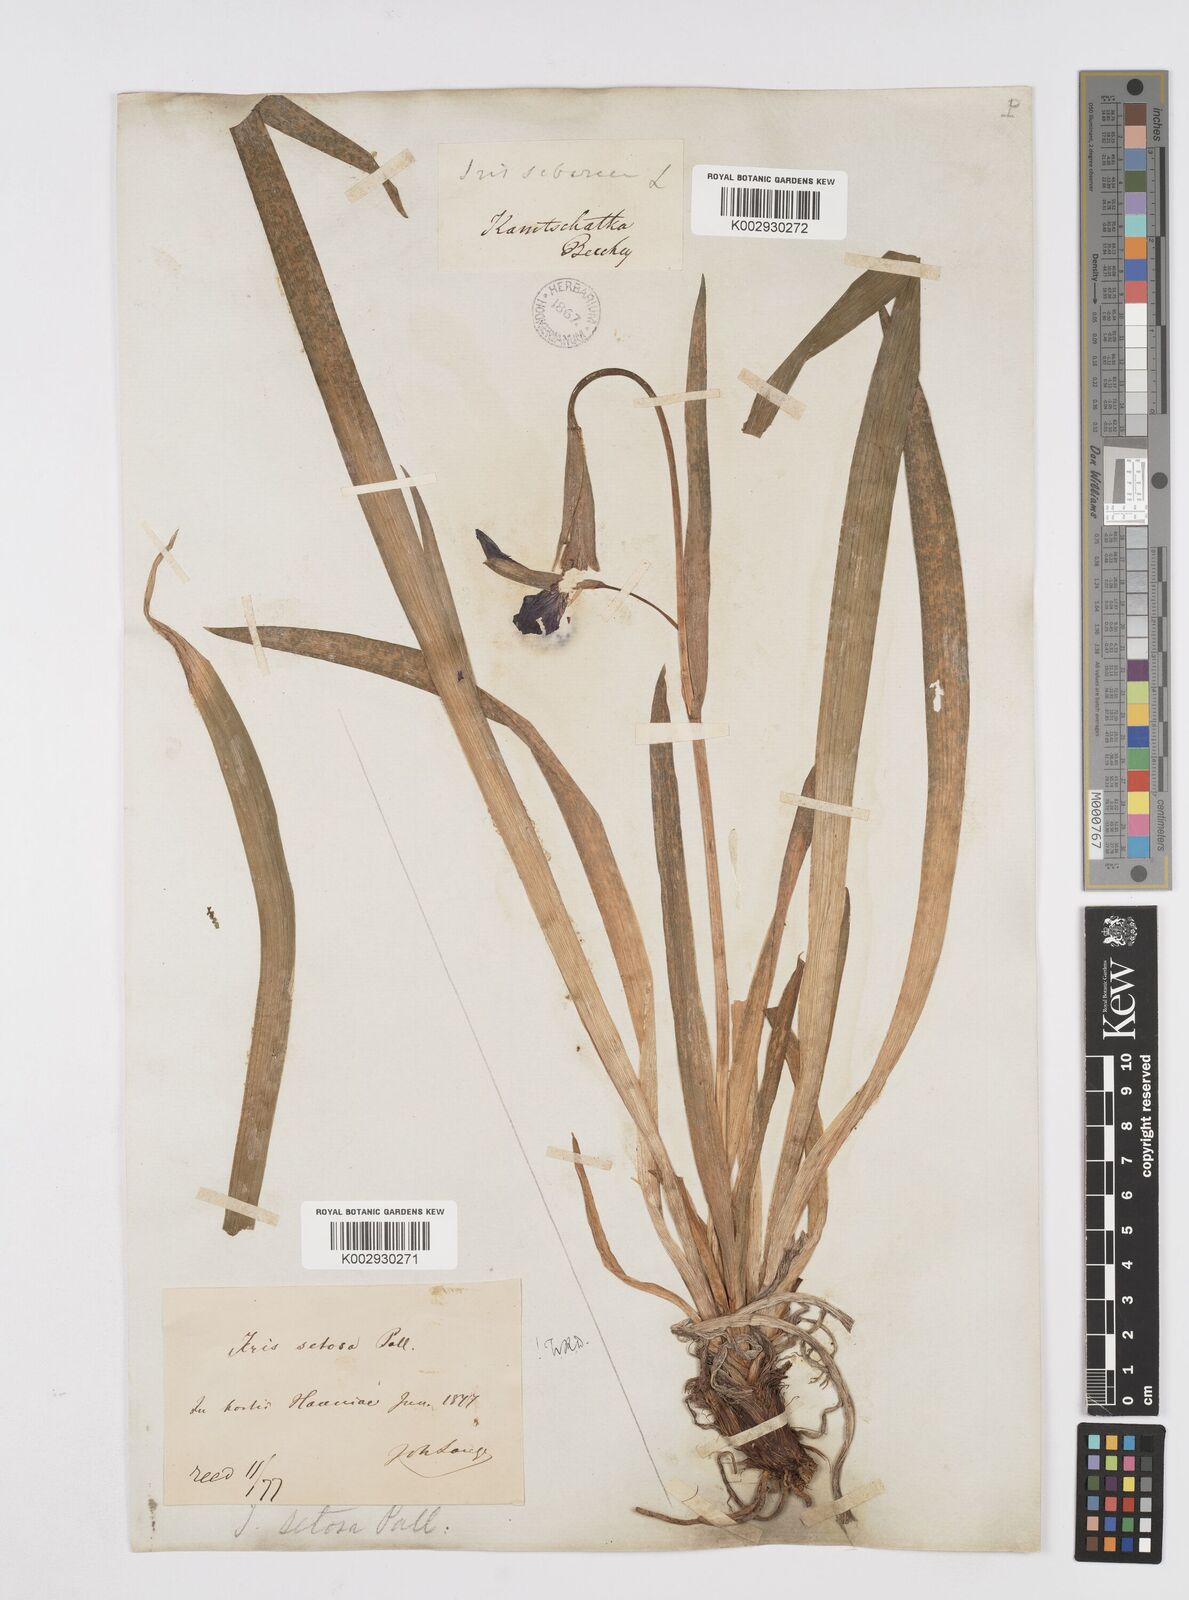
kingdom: Plantae
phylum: Tracheophyta
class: Liliopsida
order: Asparagales
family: Iridaceae
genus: Iris
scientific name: Iris setosa
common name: Arctic blue flag
